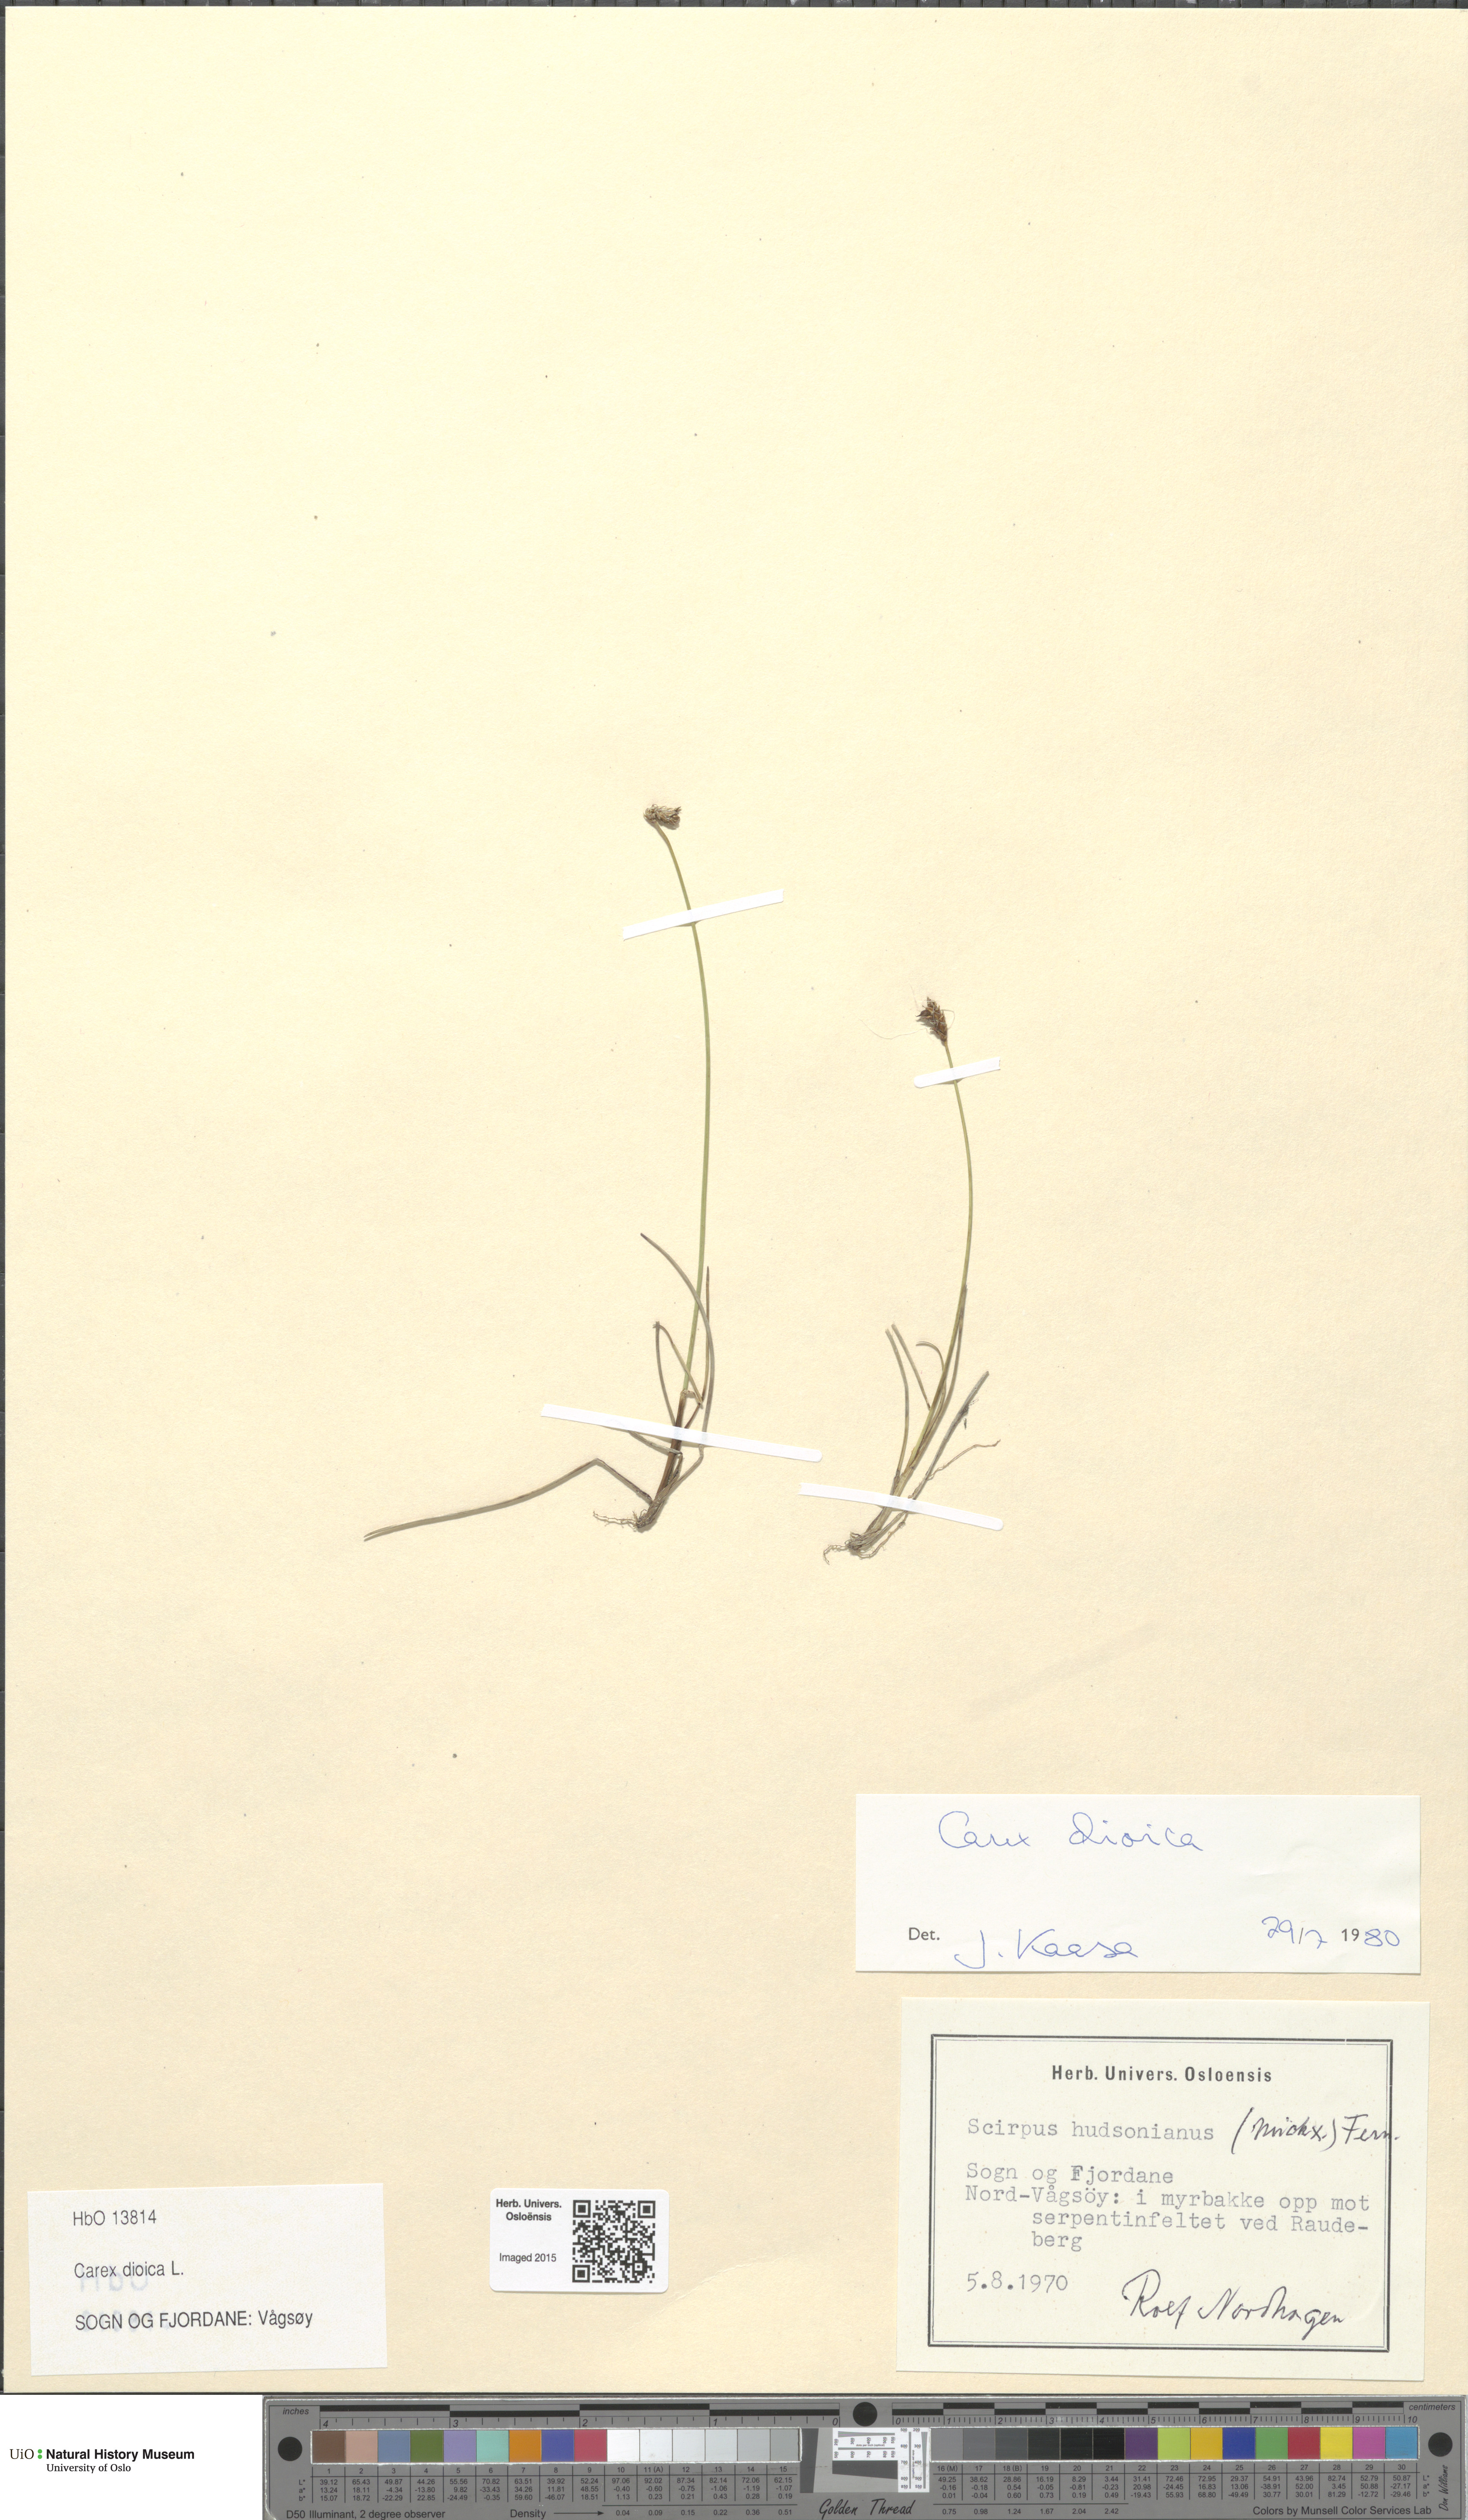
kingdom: Plantae
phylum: Tracheophyta
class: Liliopsida
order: Poales
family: Cyperaceae
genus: Carex
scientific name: Carex dioica
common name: Dioecious sedge
